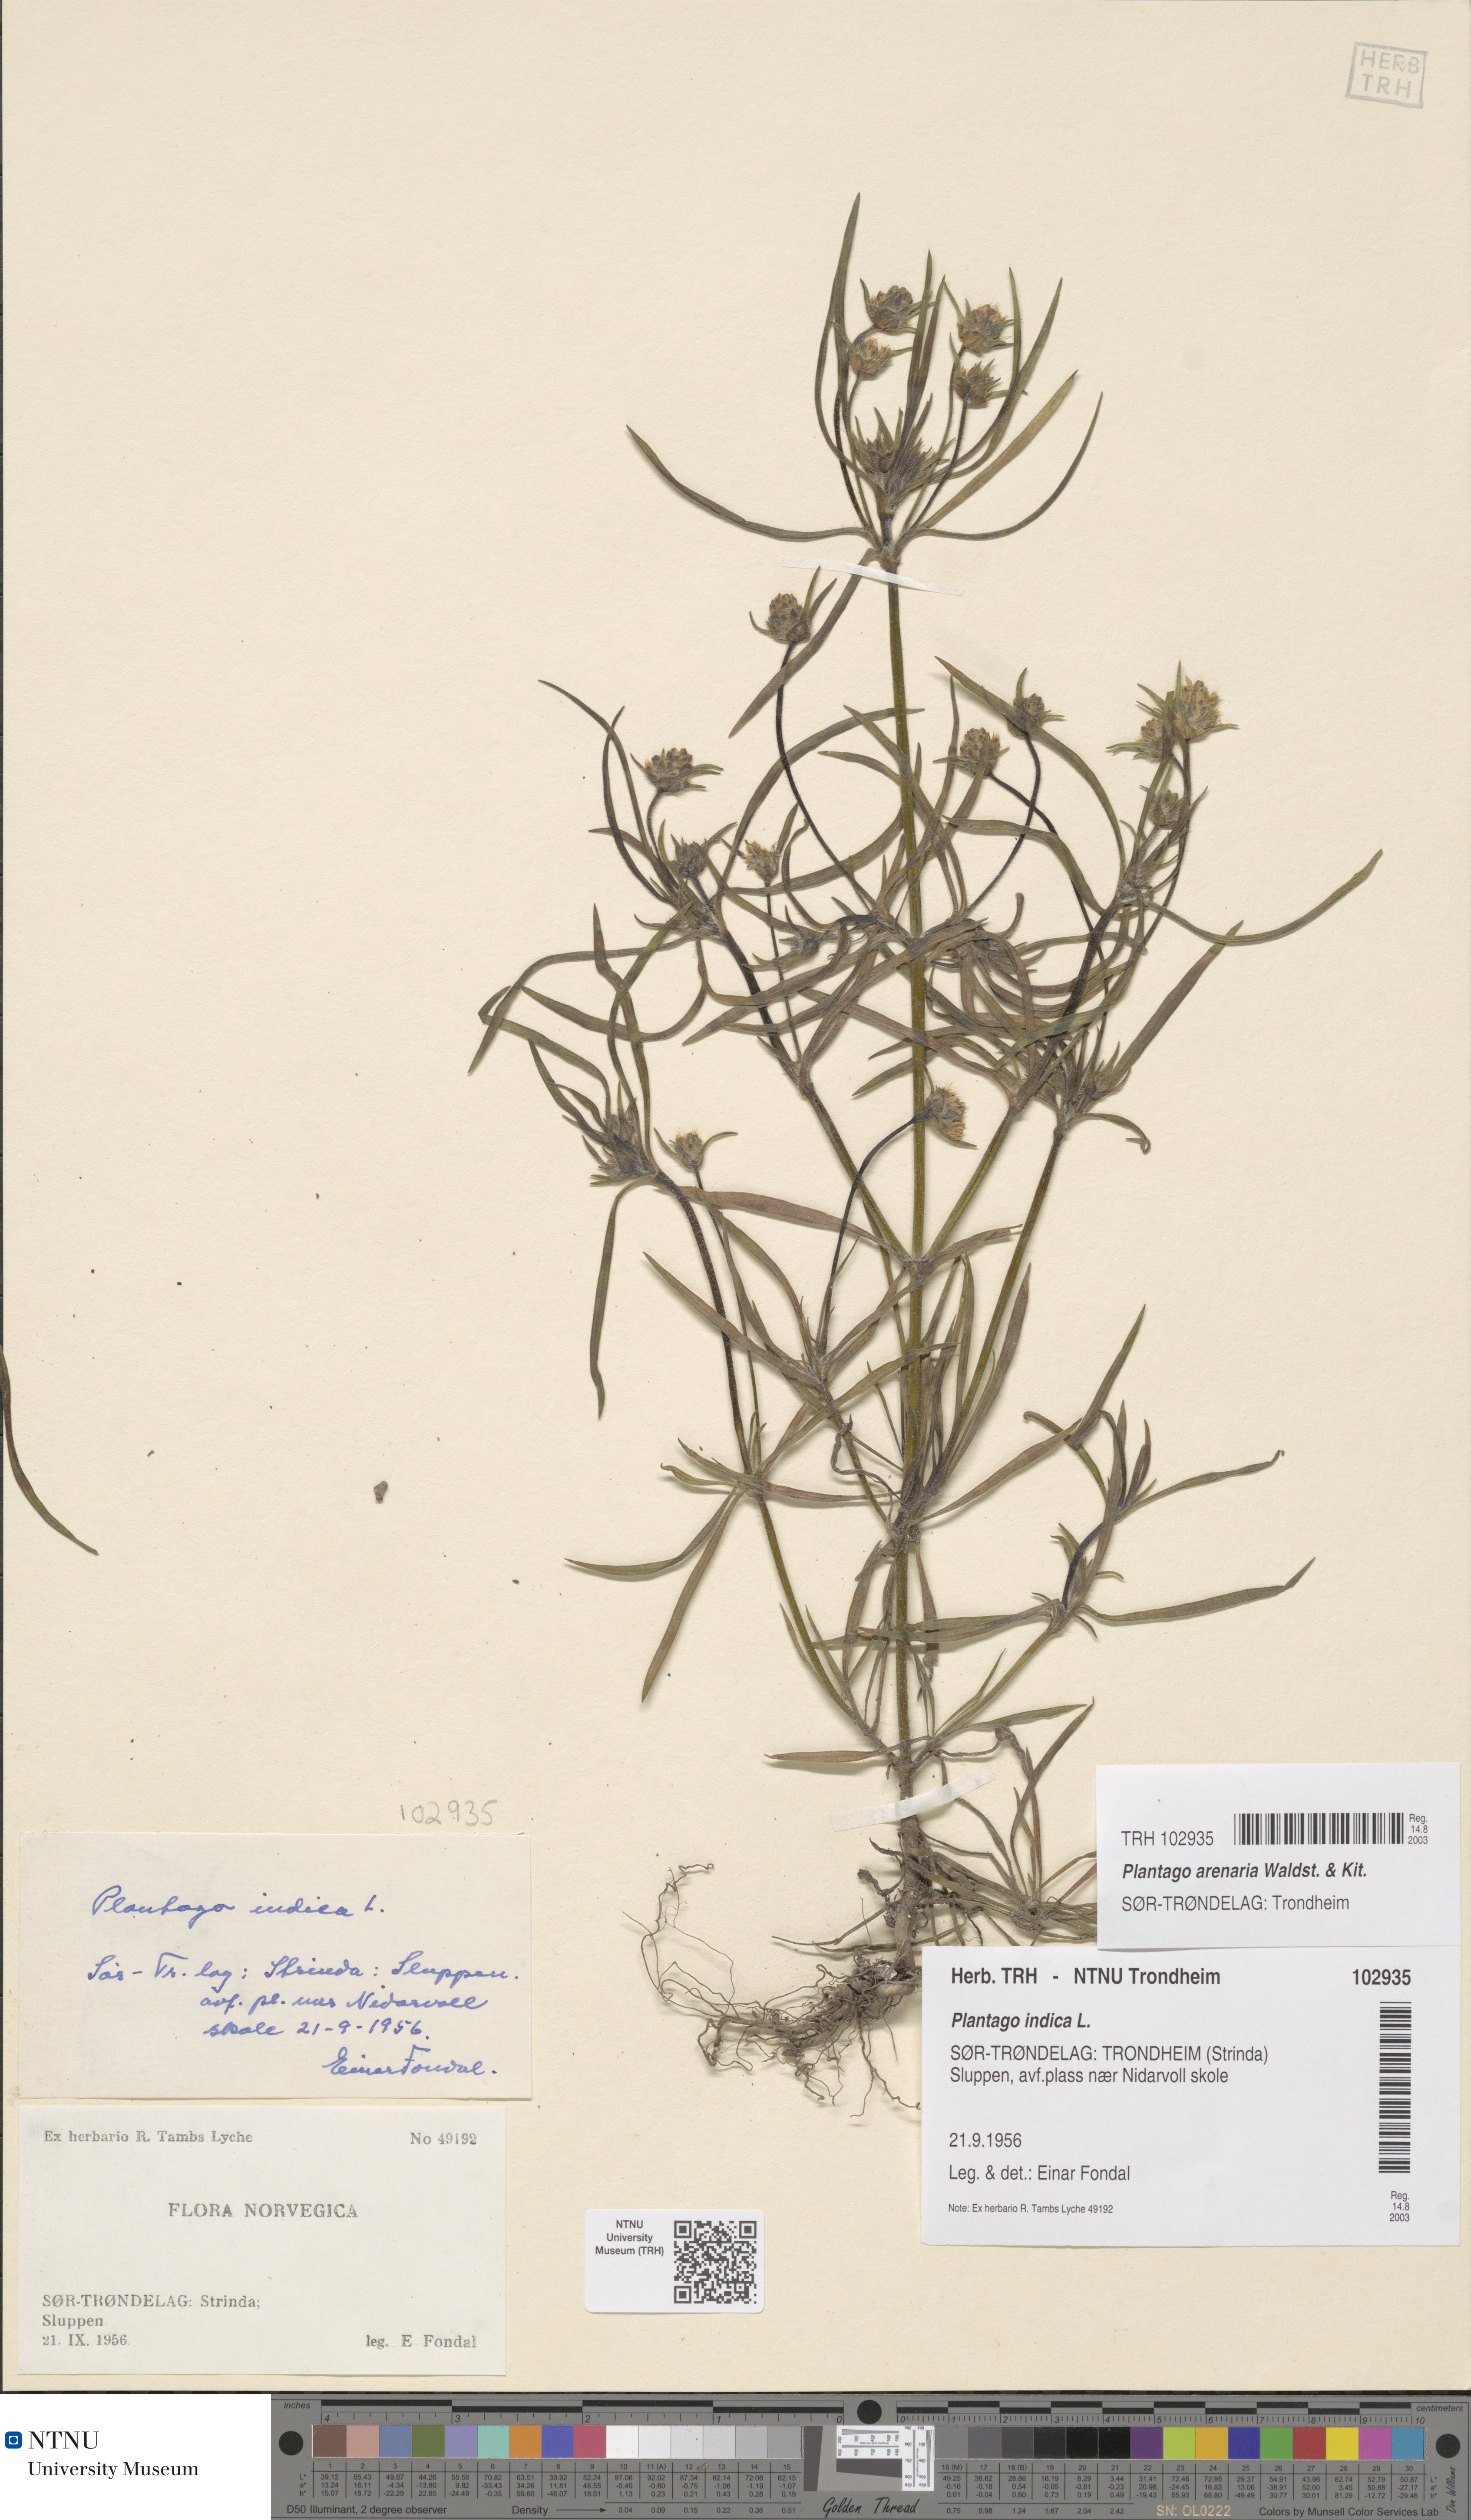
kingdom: Plantae
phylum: Tracheophyta
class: Magnoliopsida
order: Lamiales
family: Plantaginaceae
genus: Plantago
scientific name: Plantago arenaria
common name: Branched plantain
